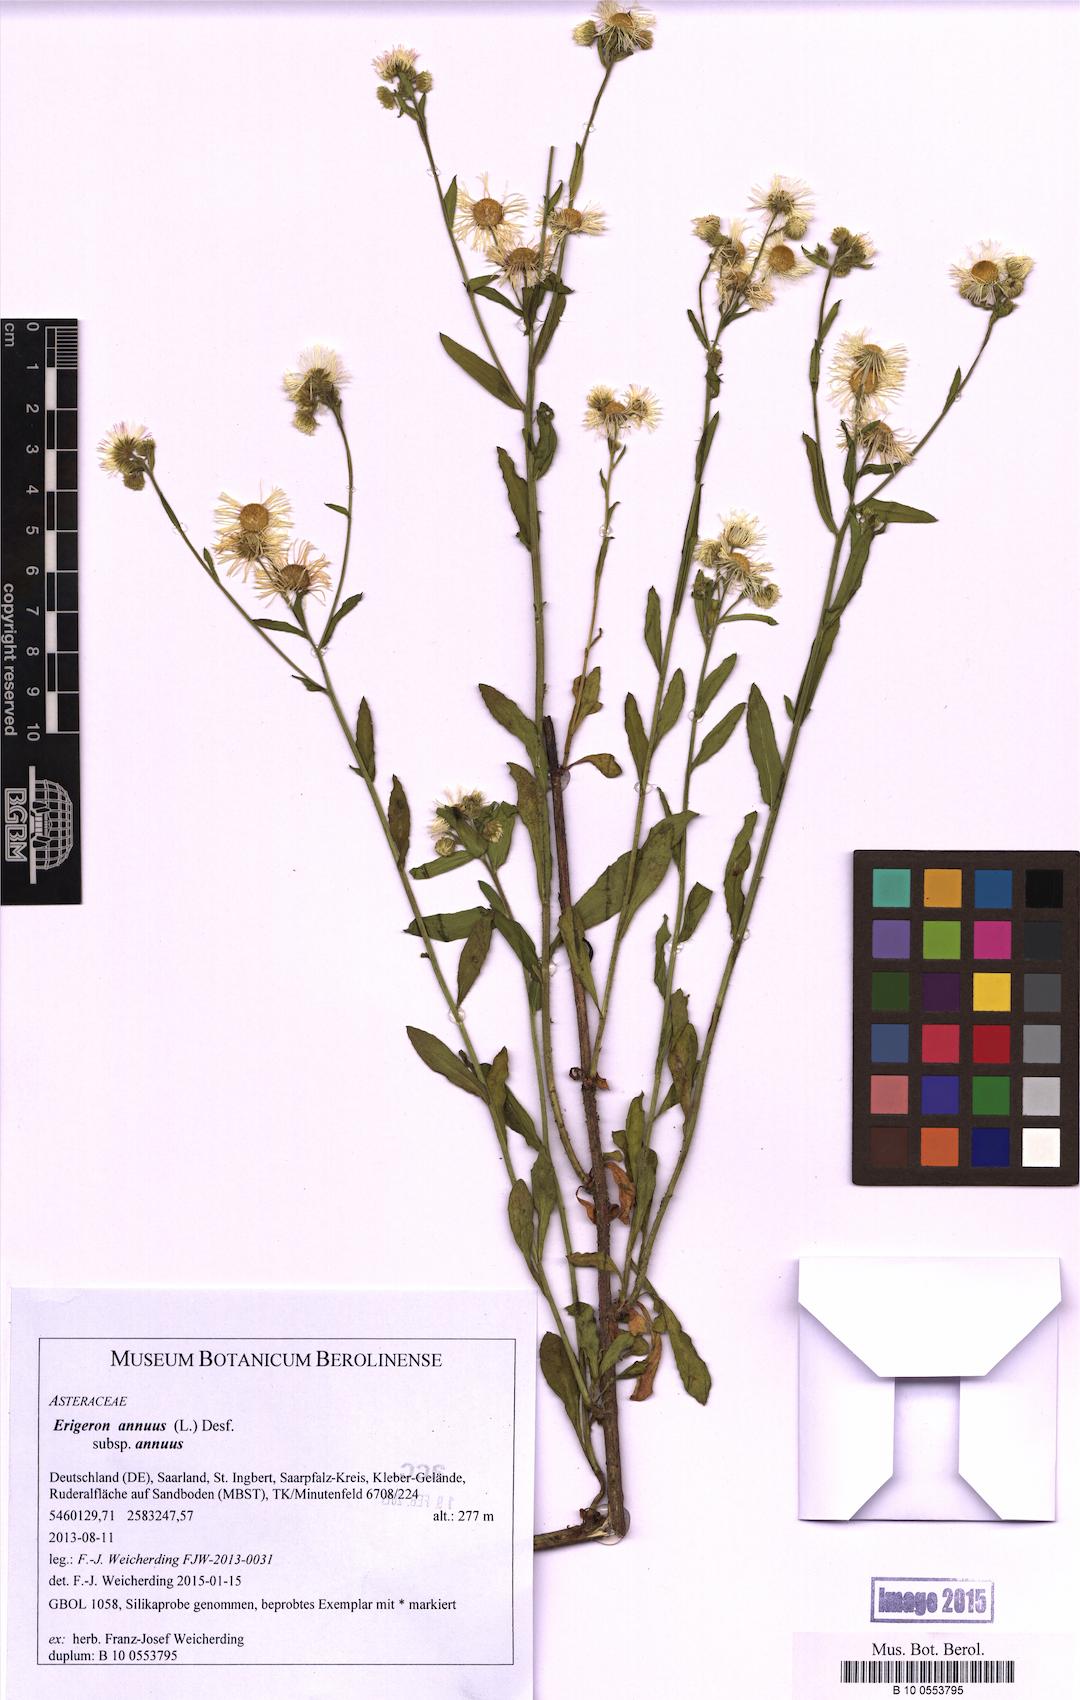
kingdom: Plantae
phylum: Tracheophyta
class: Magnoliopsida
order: Asterales
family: Asteraceae
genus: Erigeron
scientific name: Erigeron annuus
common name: Tall fleabane
